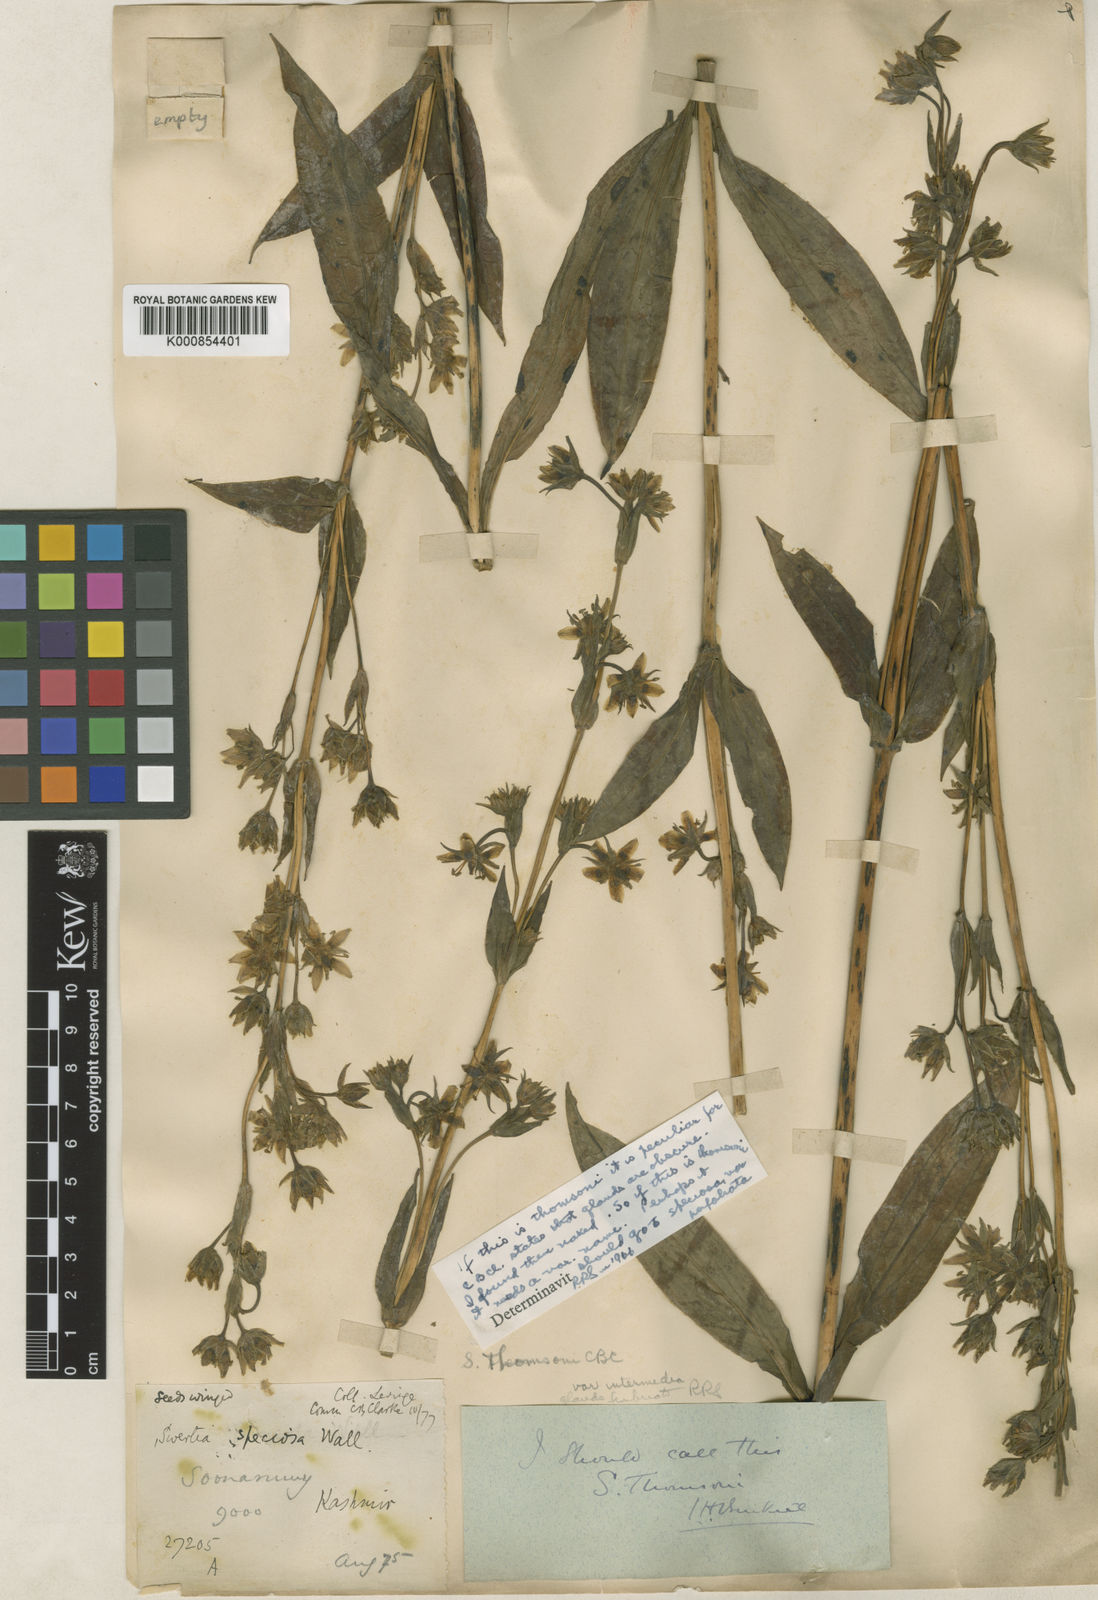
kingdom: Plantae
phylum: Tracheophyta
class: Magnoliopsida
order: Gentianales
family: Gentianaceae
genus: Swertia
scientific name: Swertia thomsonii
